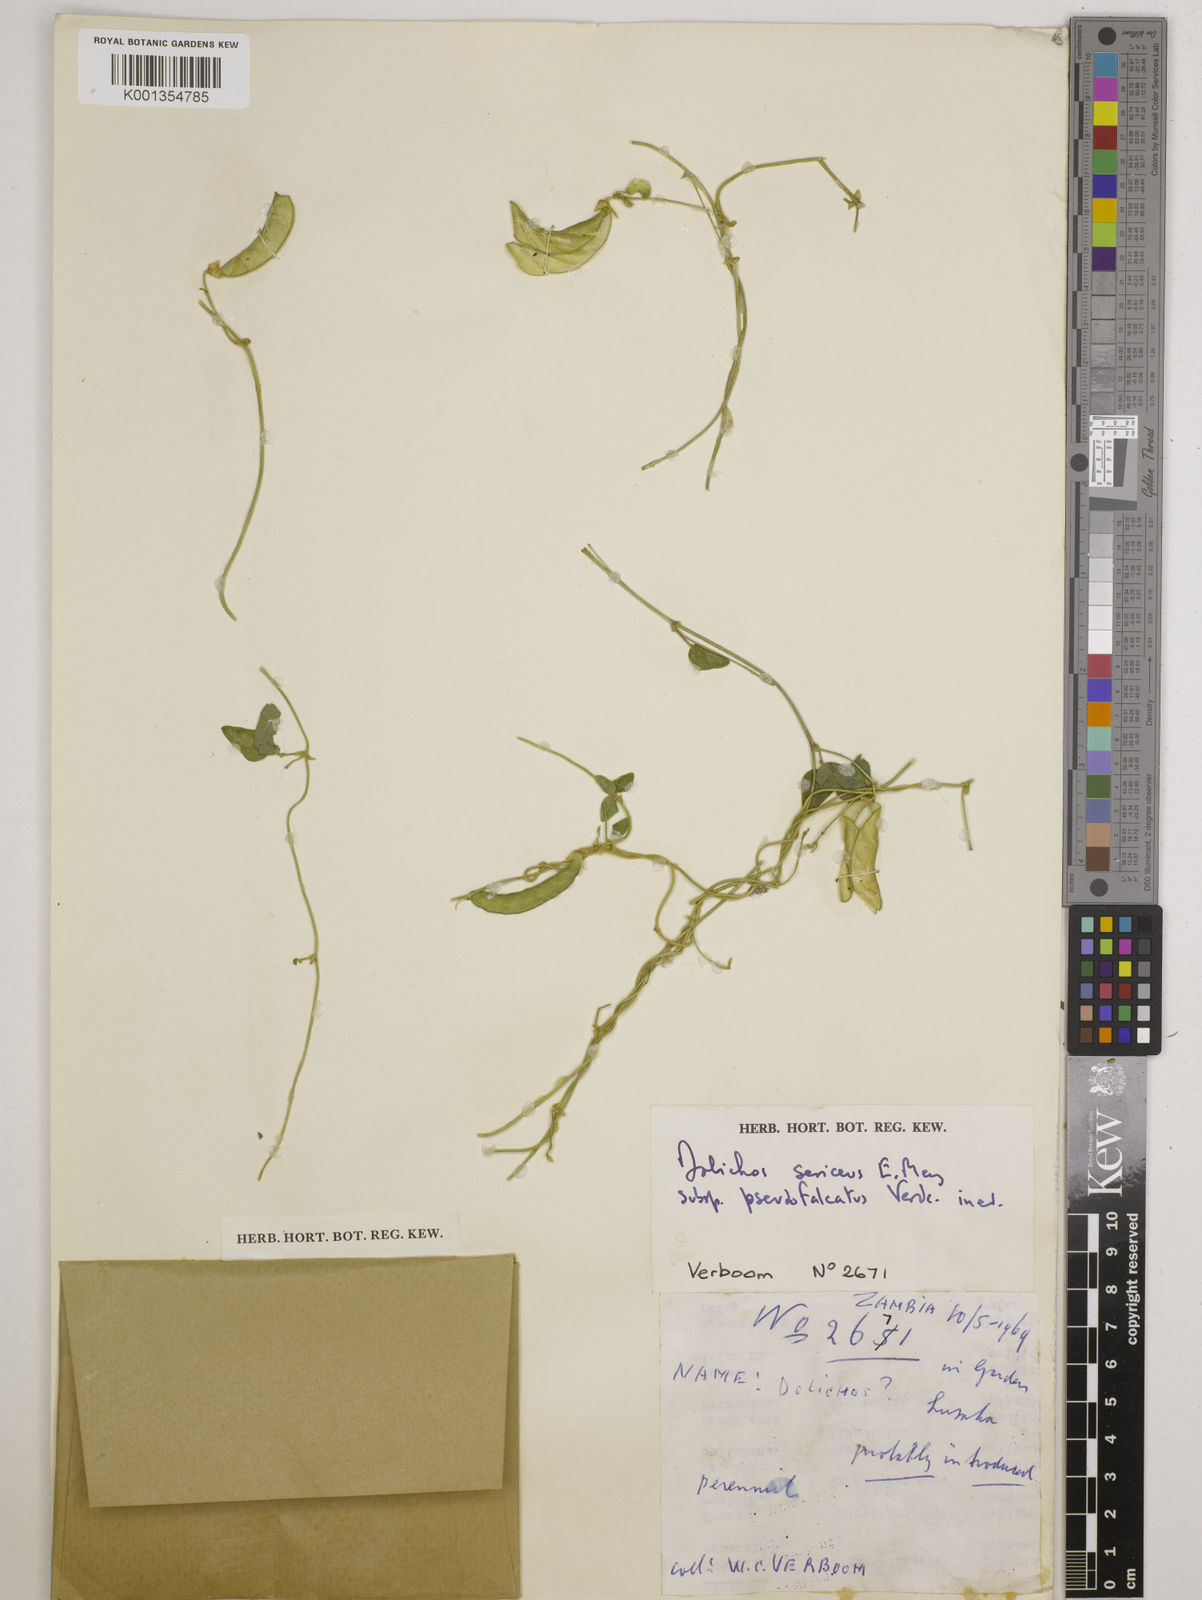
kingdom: Plantae
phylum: Tracheophyta
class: Magnoliopsida
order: Fabales
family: Fabaceae
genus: Dolichos
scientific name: Dolichos
